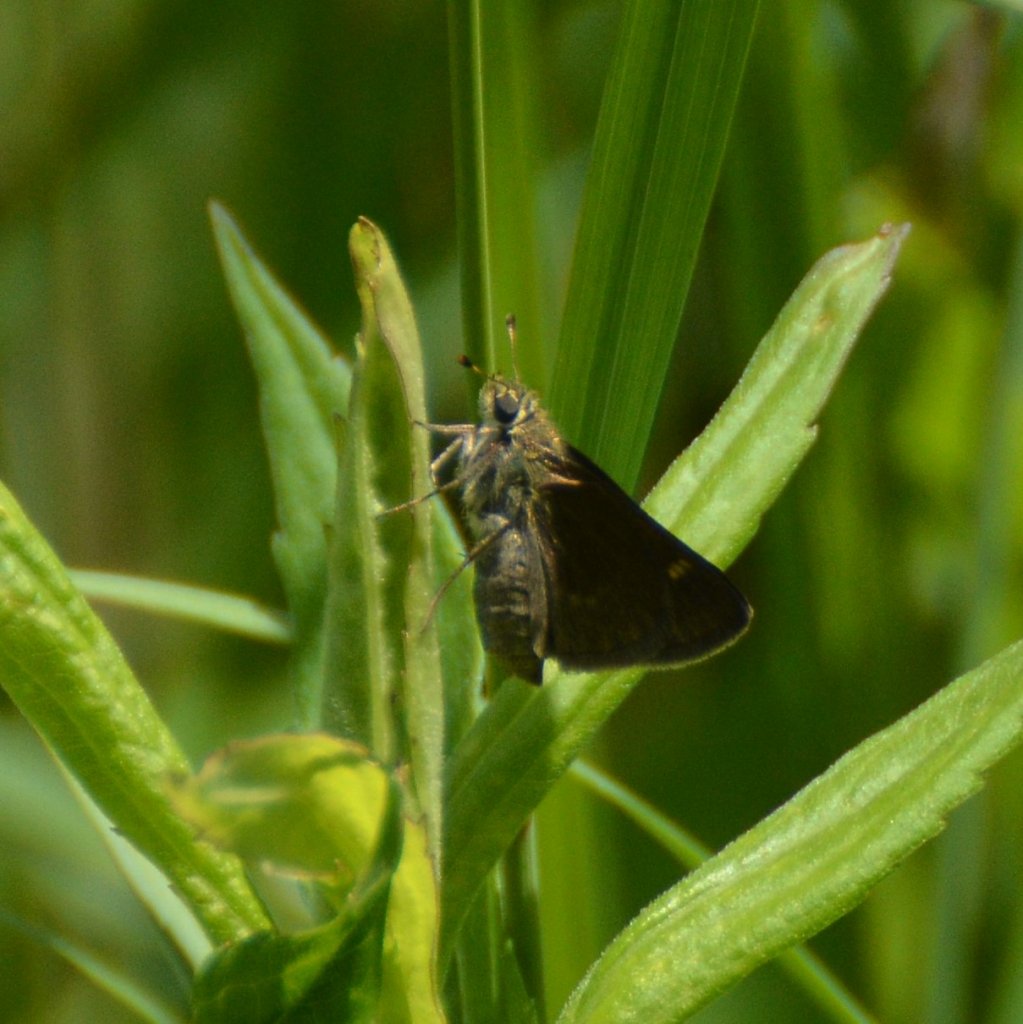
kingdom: Animalia
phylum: Arthropoda
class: Insecta
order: Lepidoptera
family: Hesperiidae
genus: Euphyes
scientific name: Euphyes vestris
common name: Dun Skipper
